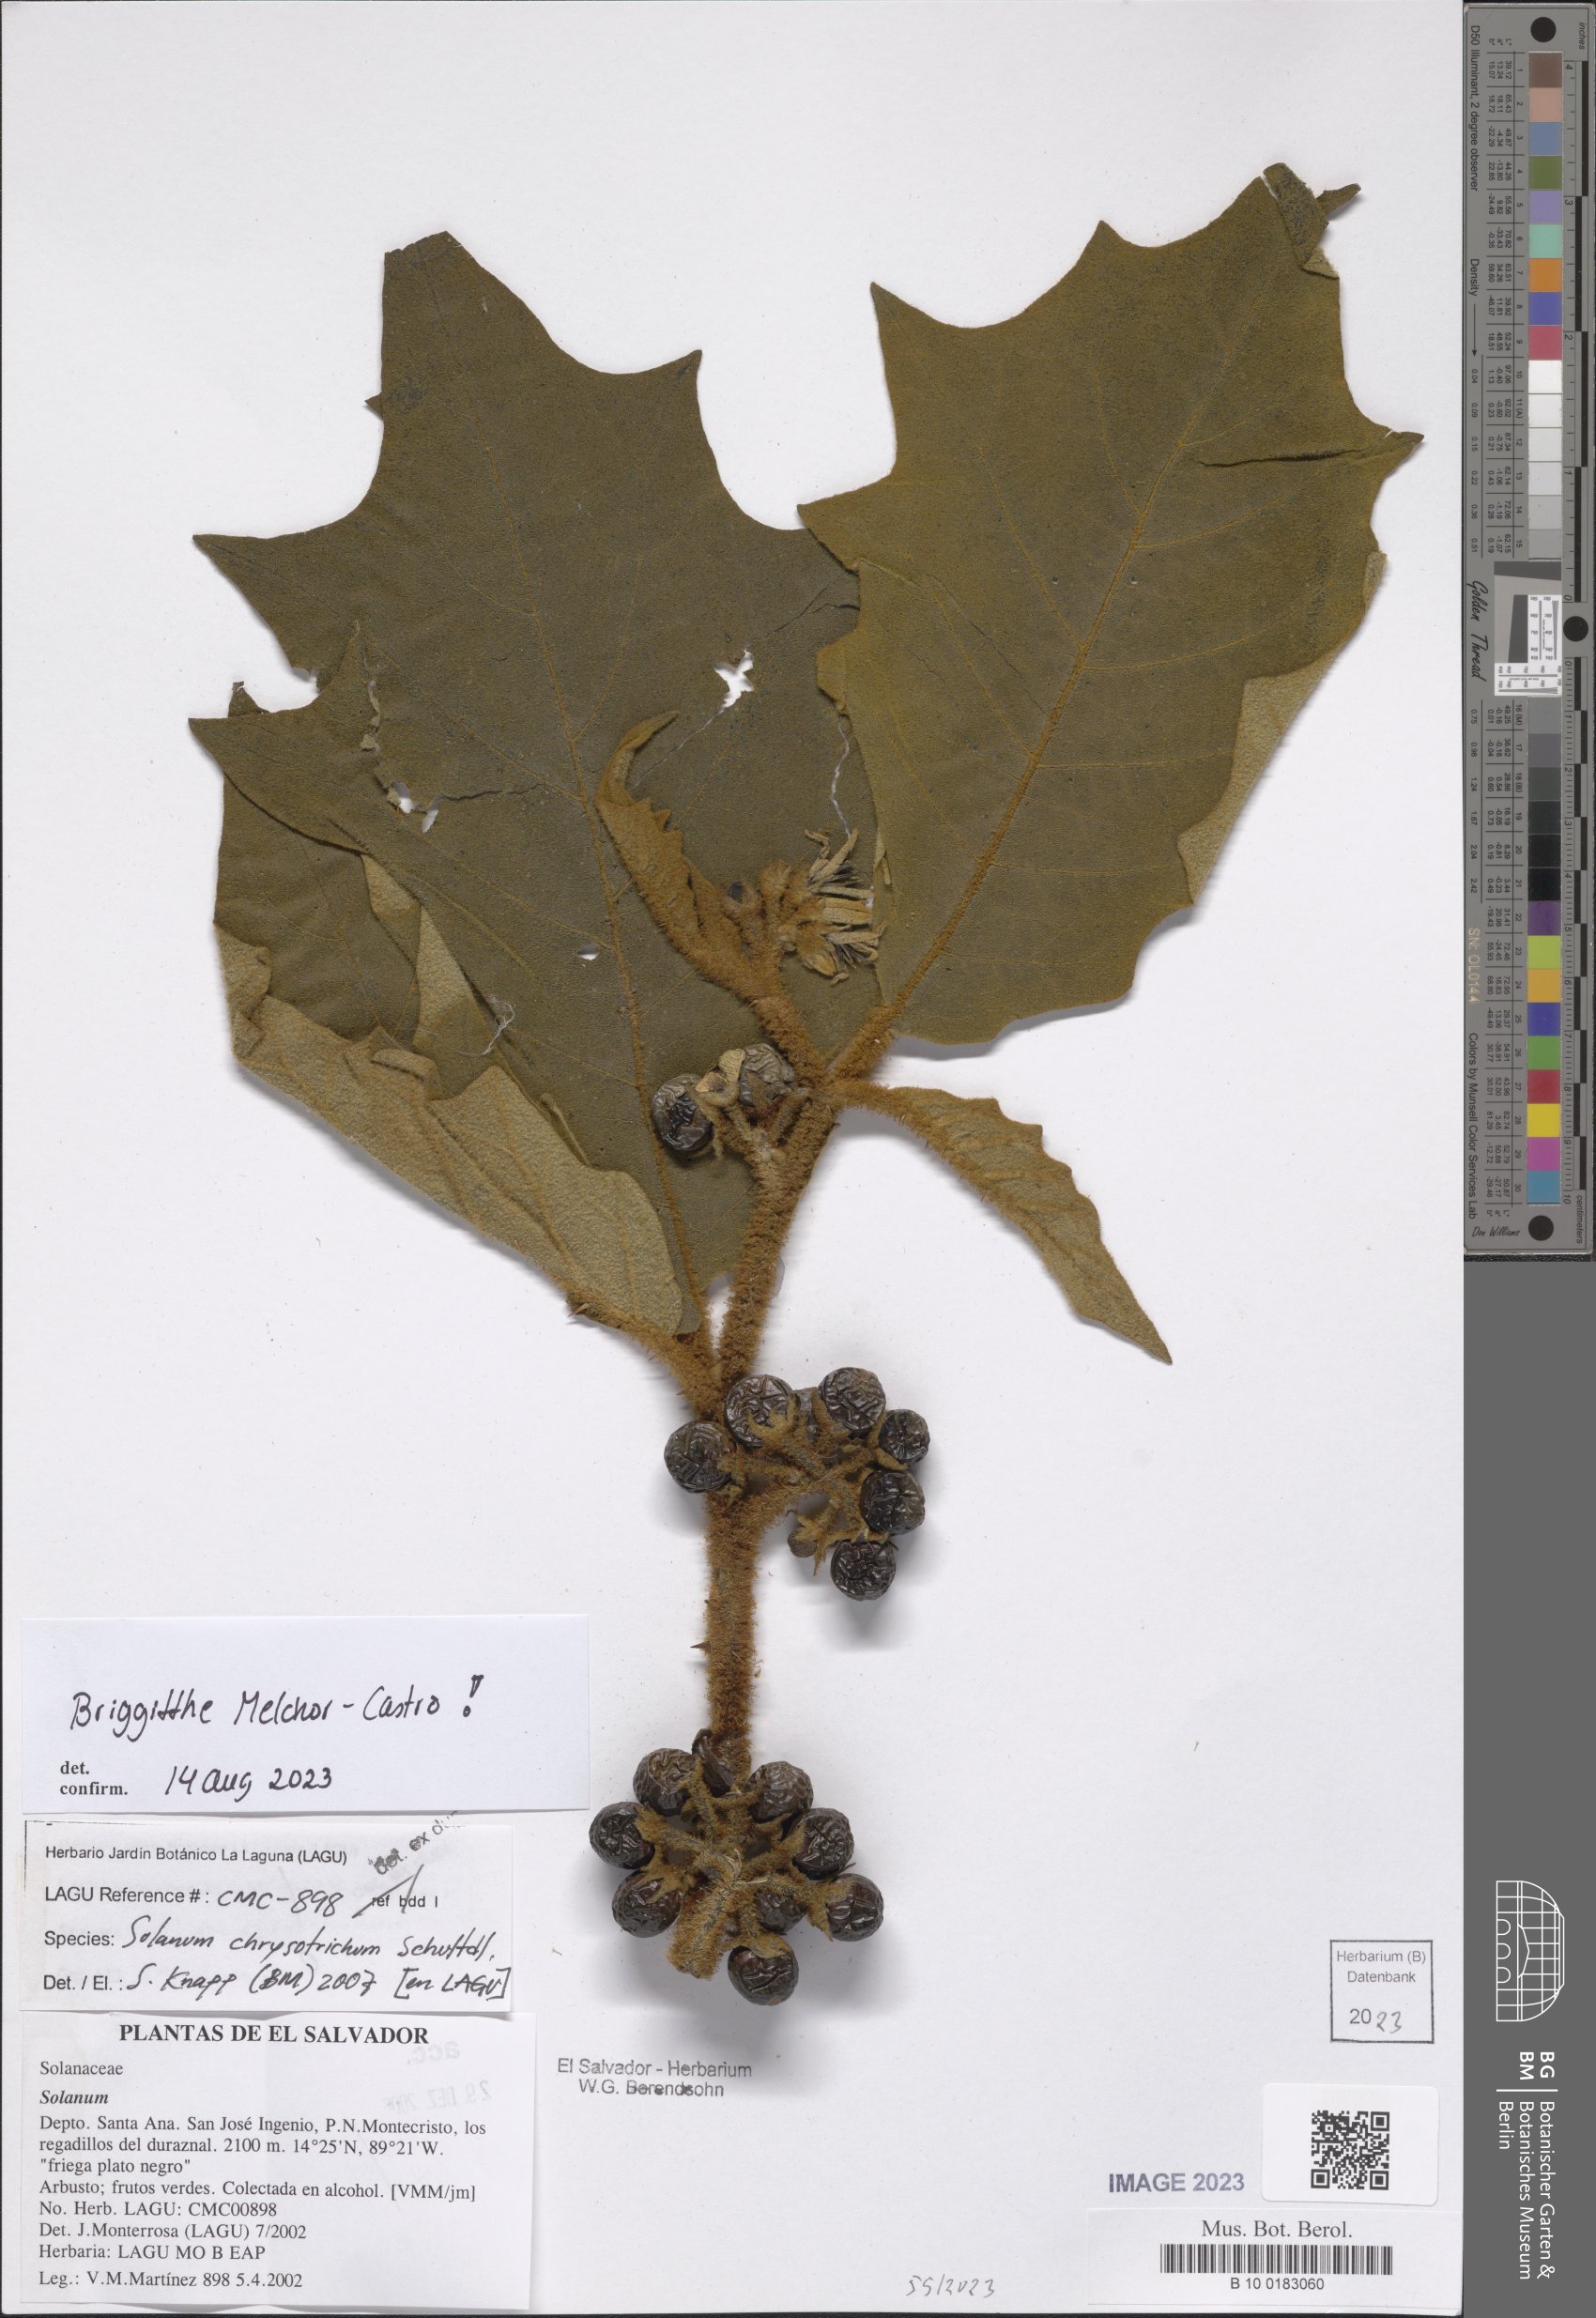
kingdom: Plantae
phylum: Tracheophyta
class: Magnoliopsida
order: Solanales
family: Solanaceae
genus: Solanum
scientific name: Solanum chrysotrichum
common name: Nightshade
